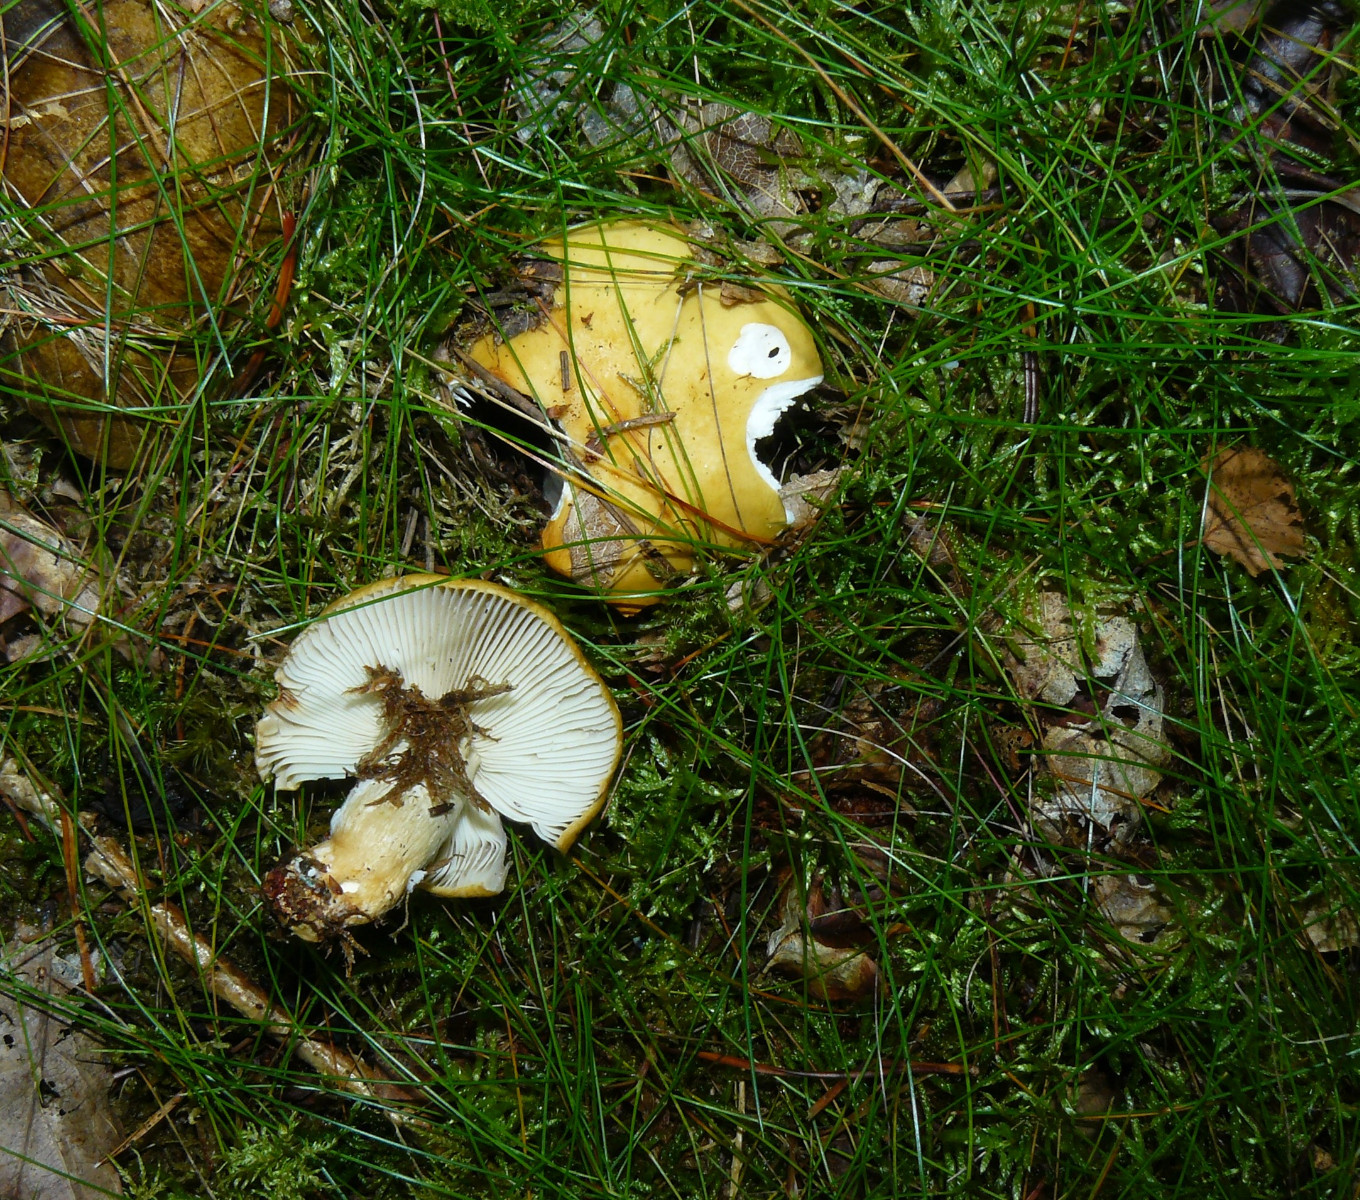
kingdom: Fungi
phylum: Basidiomycota
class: Agaricomycetes
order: Russulales
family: Russulaceae
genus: Russula
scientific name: Russula ochroleuca
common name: okkergul skørhat
